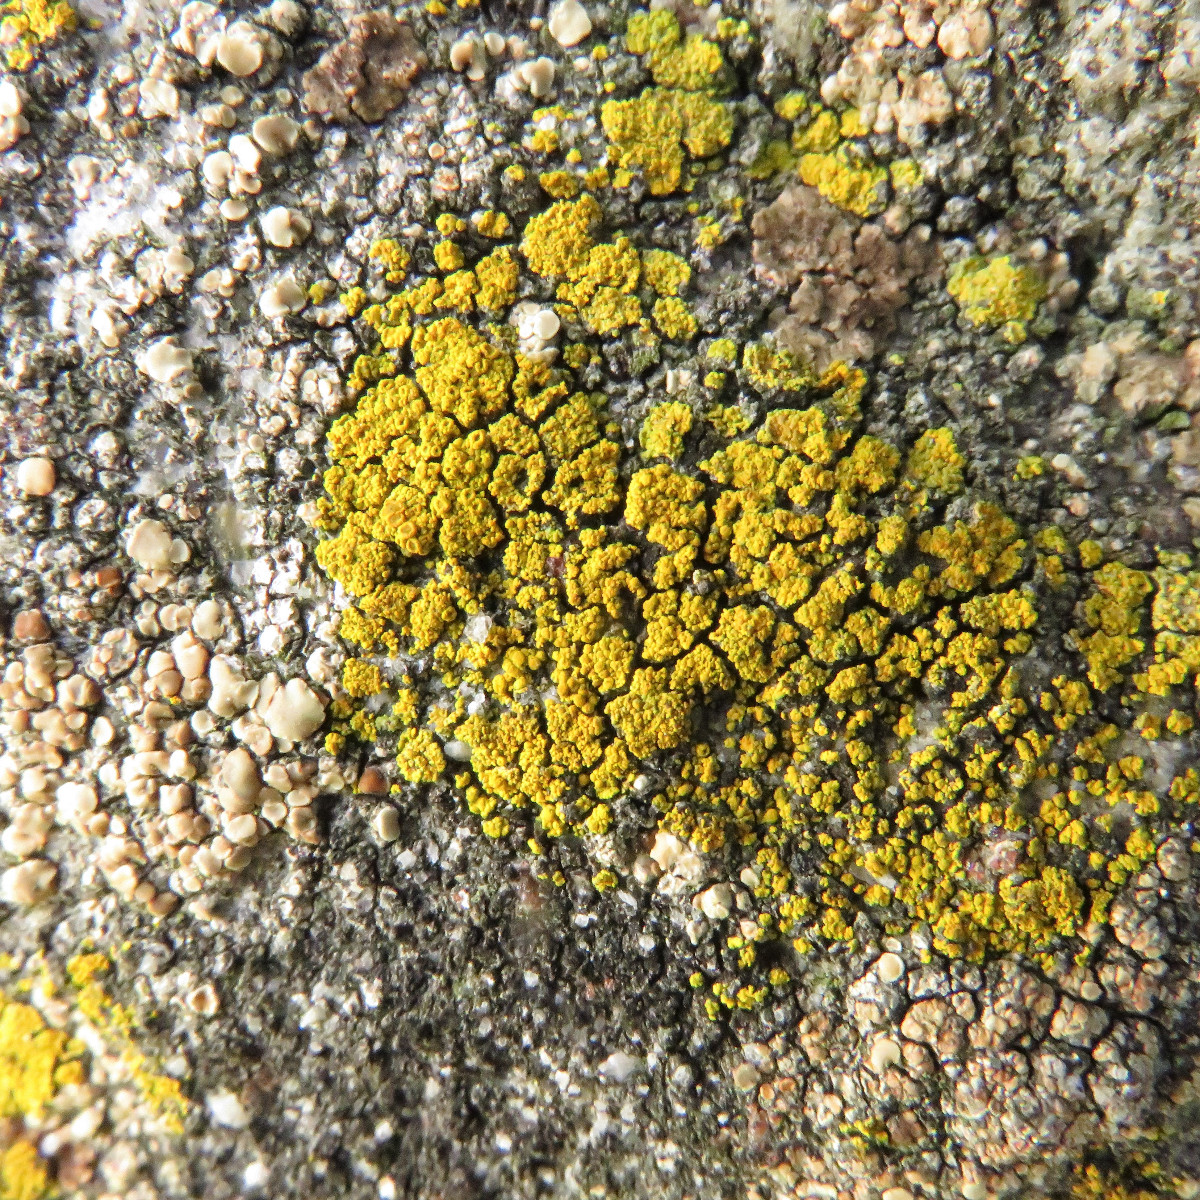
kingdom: Fungi
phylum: Ascomycota
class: Candelariomycetes
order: Candelariales
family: Candelariaceae
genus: Candelariella
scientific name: Candelariella vitellina
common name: almindelig æggeblommelav
